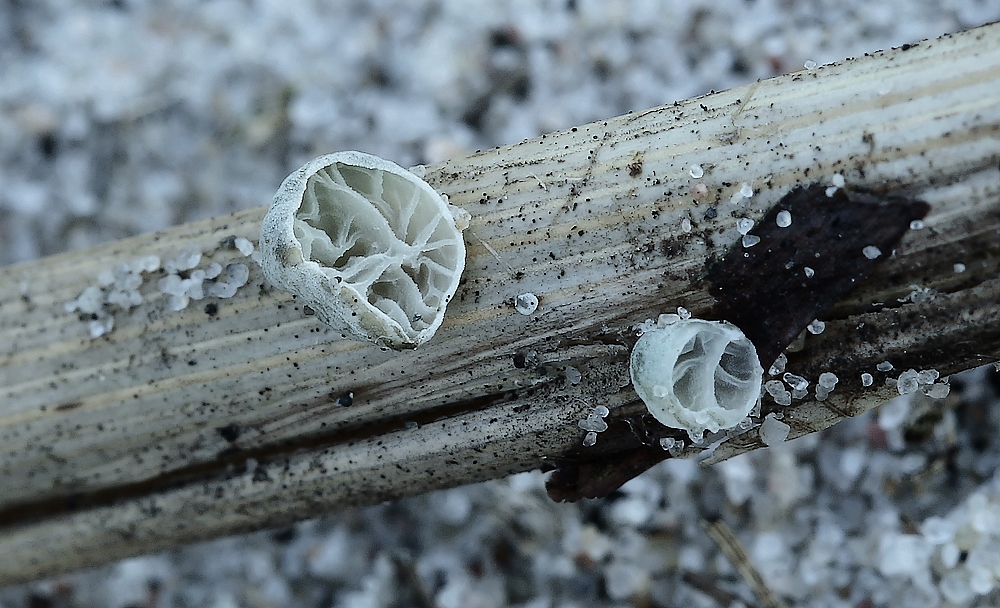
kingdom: Fungi
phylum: Basidiomycota
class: Agaricomycetes
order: Agaricales
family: Marasmiaceae
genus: Campanella
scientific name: Campanella caesia
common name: bruskøre
